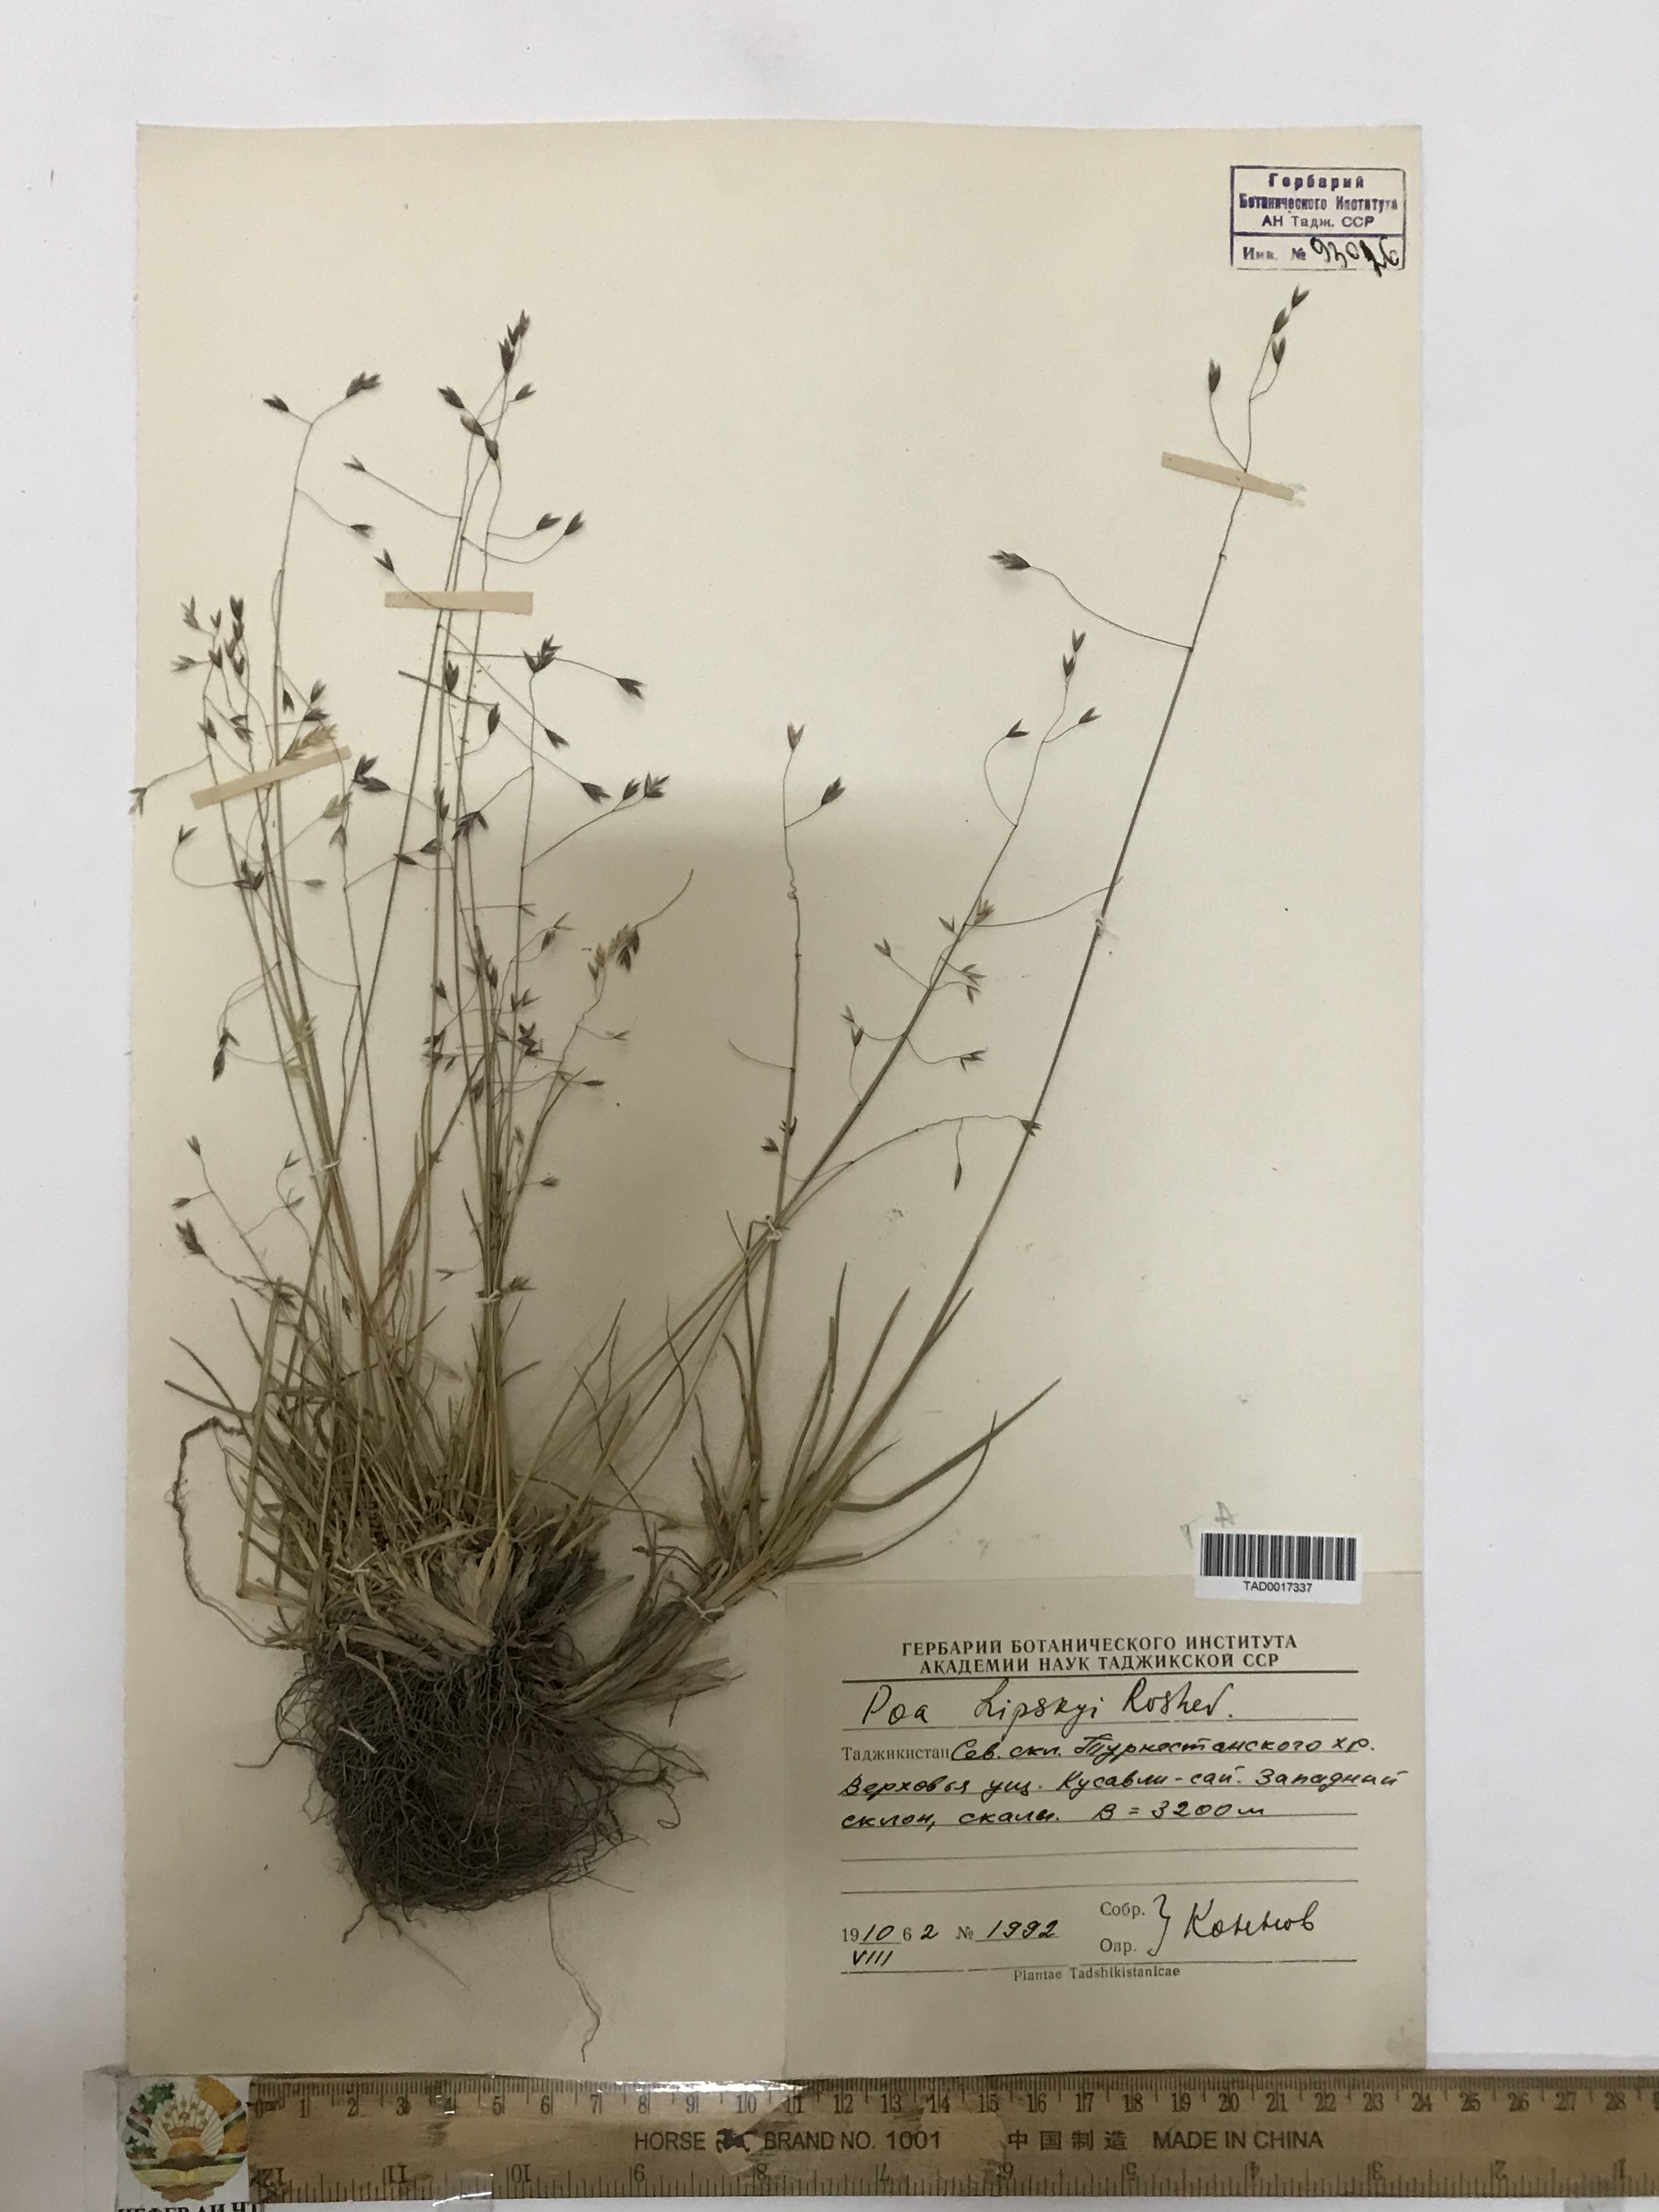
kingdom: Plantae
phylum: Tracheophyta
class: Liliopsida
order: Poales
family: Poaceae
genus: Poa
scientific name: Poa lipskyi
